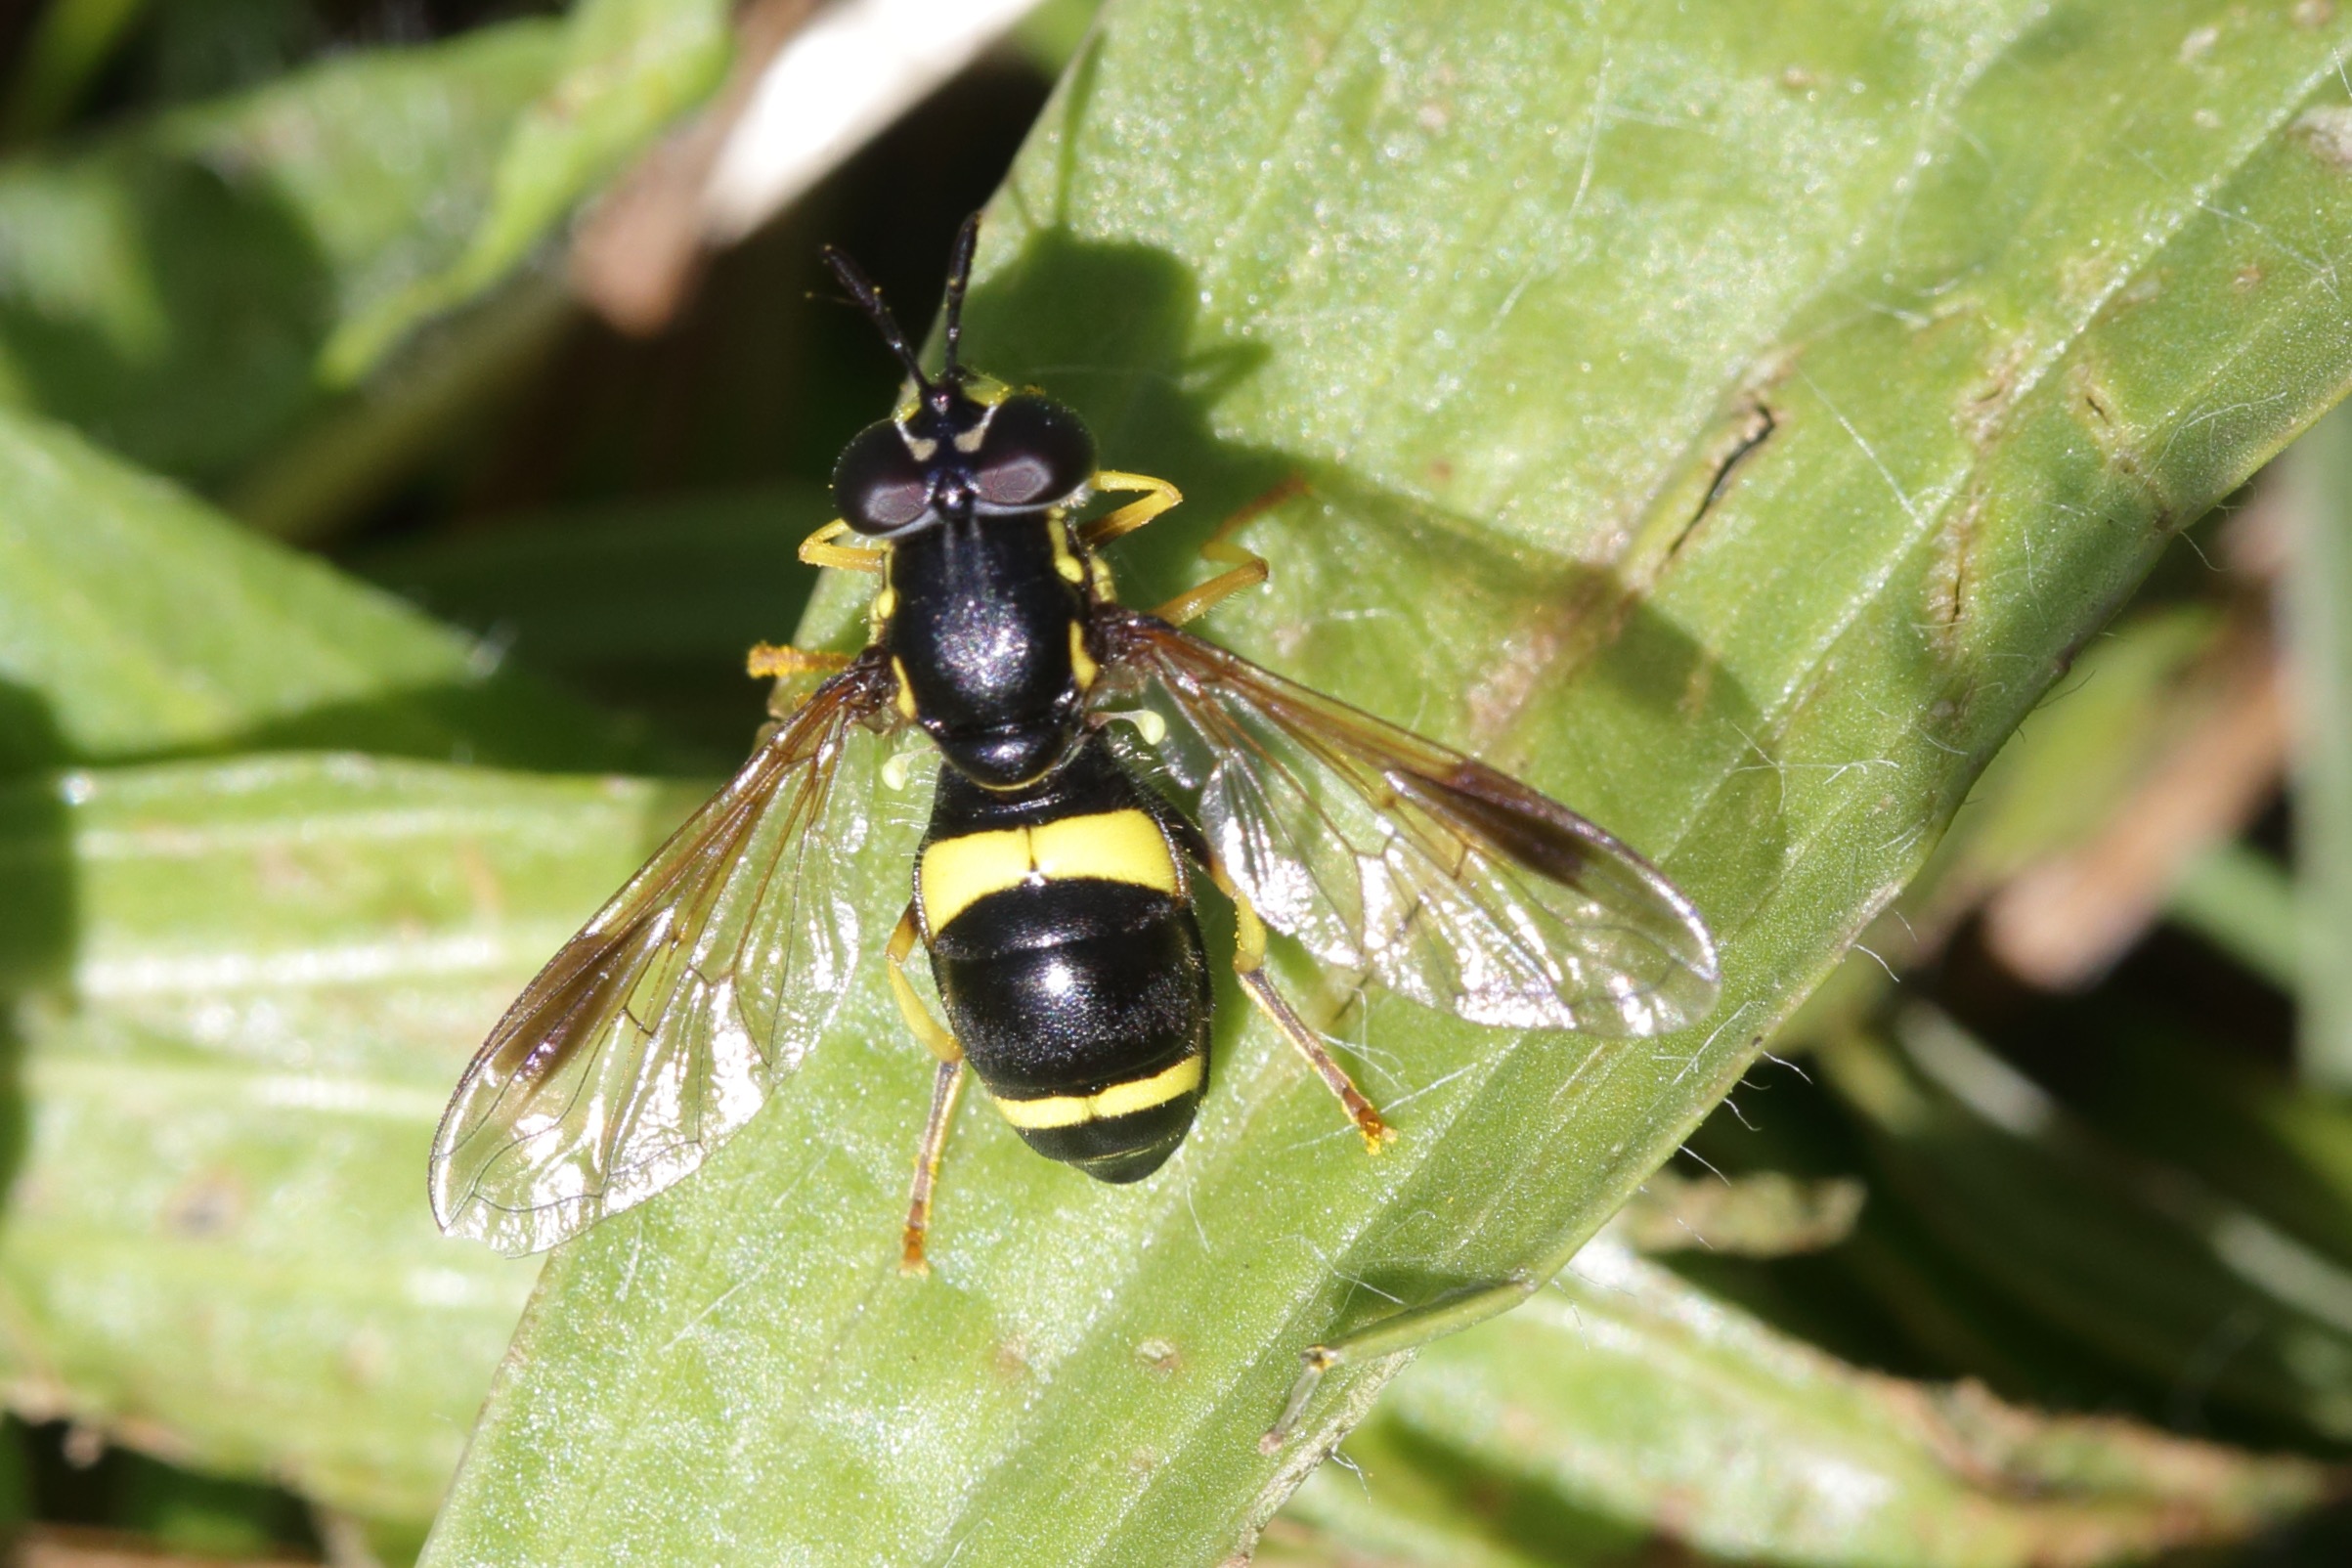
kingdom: Animalia
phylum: Arthropoda
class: Insecta
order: Diptera
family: Syrphidae
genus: Chrysotoxum
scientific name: Chrysotoxum bicincta
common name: Tobåndet hvepsesvirreflue
